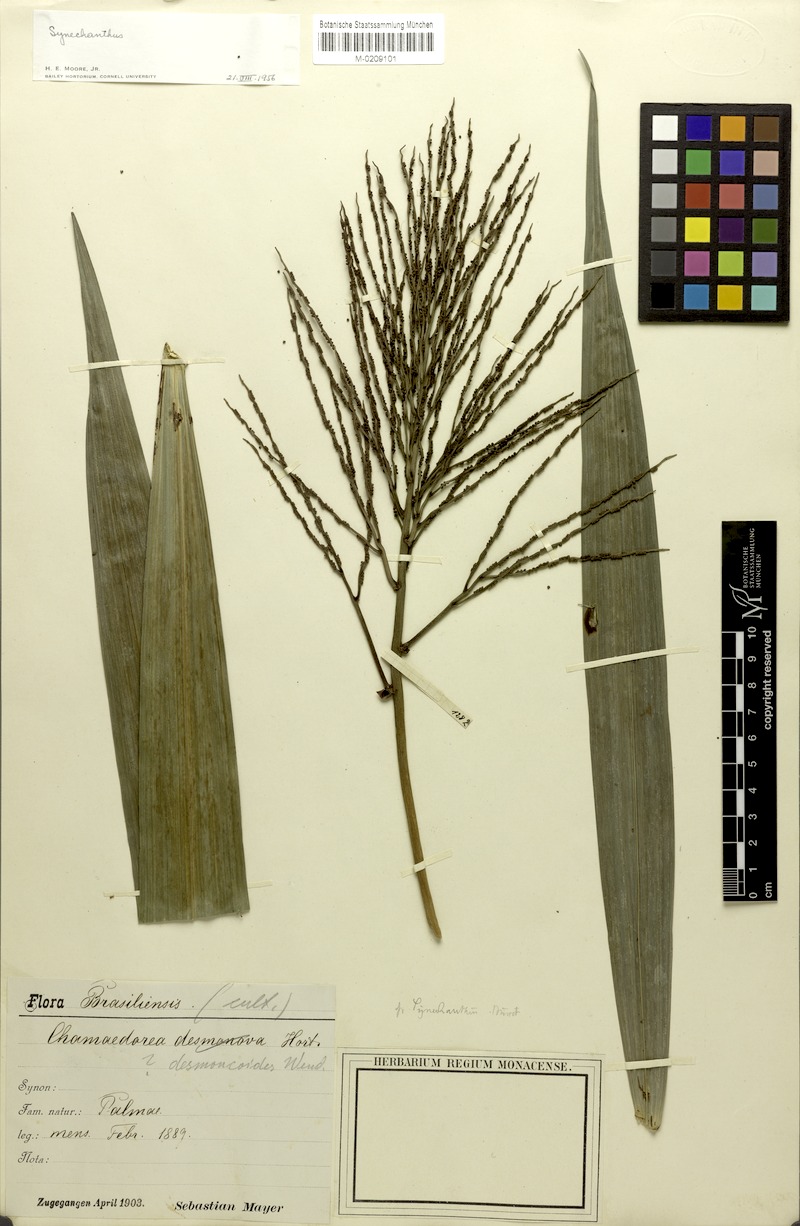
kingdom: Plantae
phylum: Tracheophyta
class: Liliopsida
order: Arecales
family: Arecaceae
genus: Synechanthus
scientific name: Synechanthus
